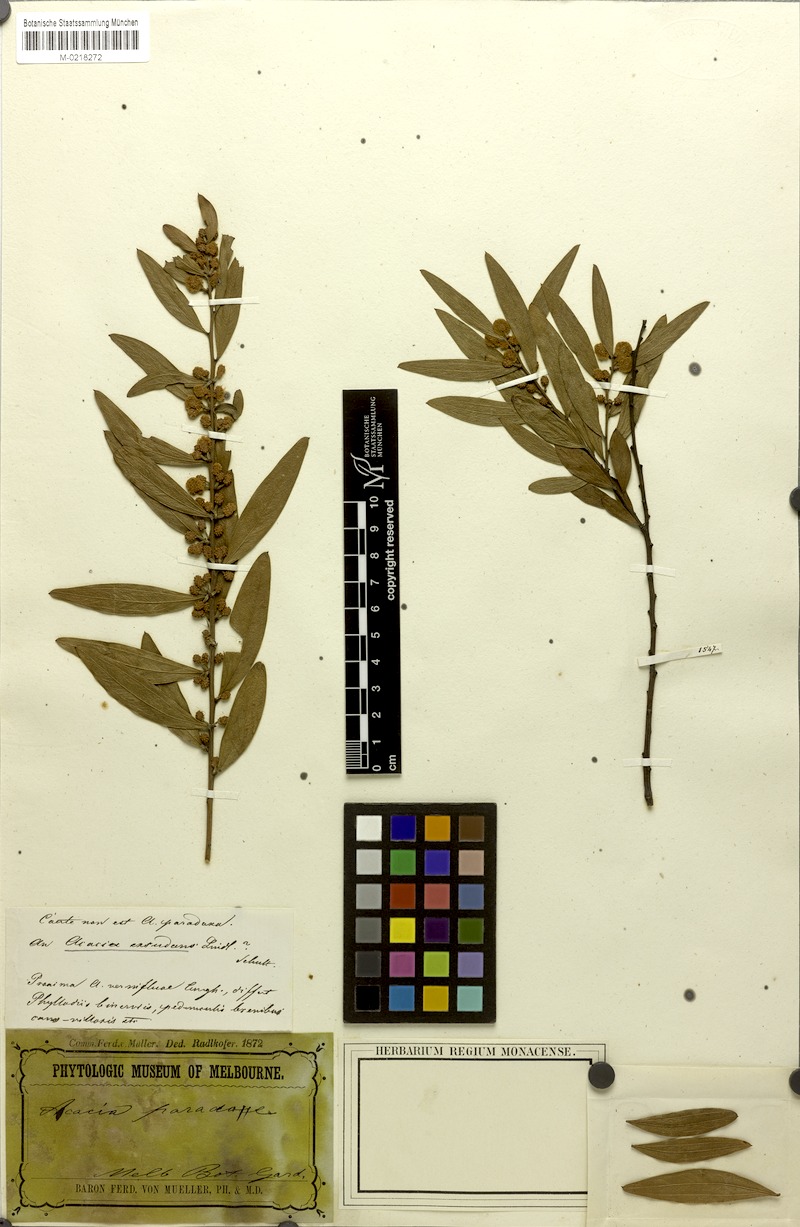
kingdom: Plantae
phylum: Tracheophyta
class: Magnoliopsida
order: Fabales
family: Fabaceae
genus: Acacia
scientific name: Acacia exudans
